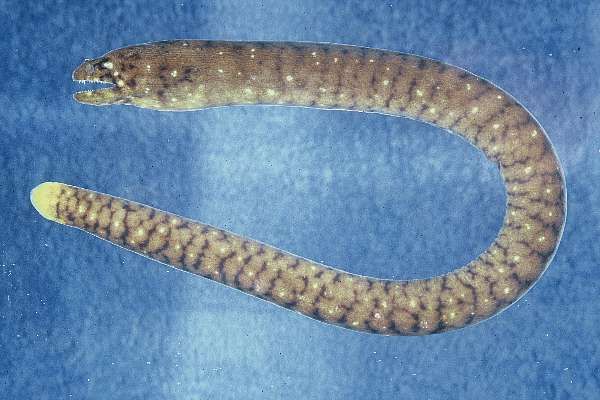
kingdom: Animalia
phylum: Chordata
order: Anguilliformes
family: Muraenidae
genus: Uropterygius
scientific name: Uropterygius fasciolatus
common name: Gosline's snake moray
